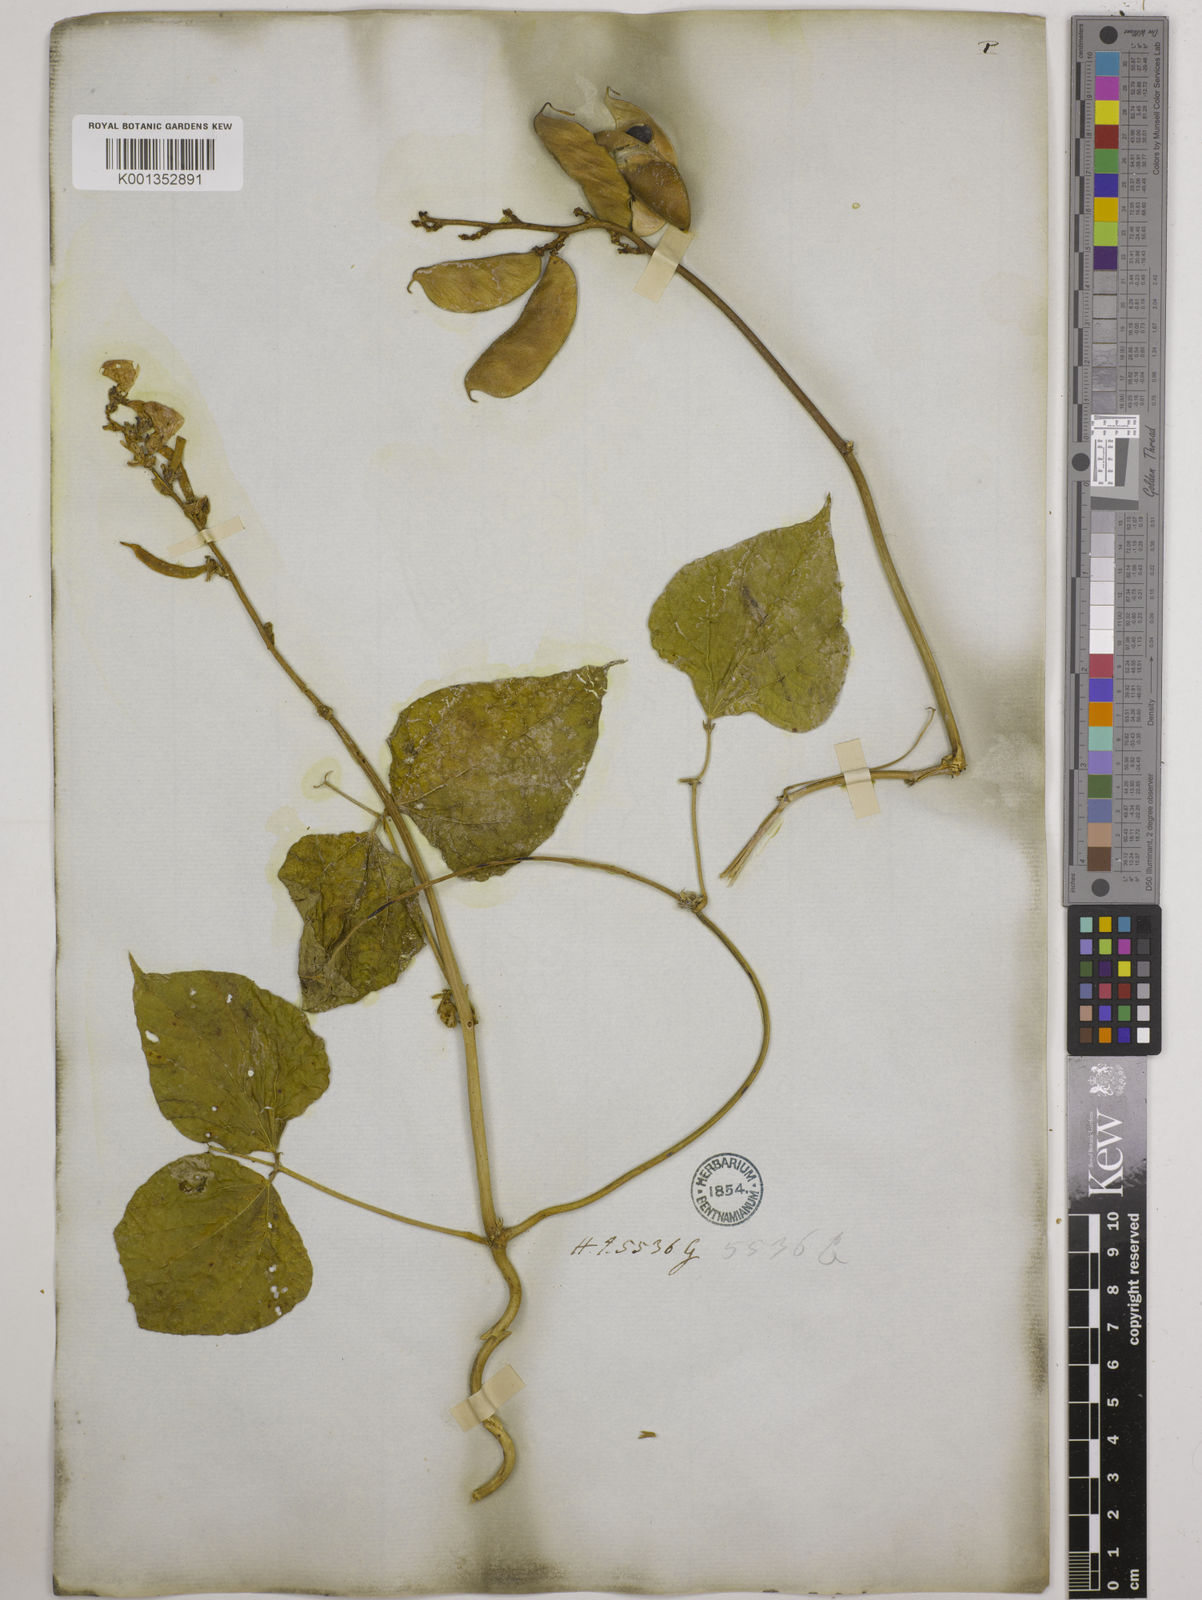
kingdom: Plantae
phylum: Tracheophyta
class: Magnoliopsida
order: Fabales
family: Fabaceae
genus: Lablab
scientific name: Lablab purpureus
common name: Lablab-bean
